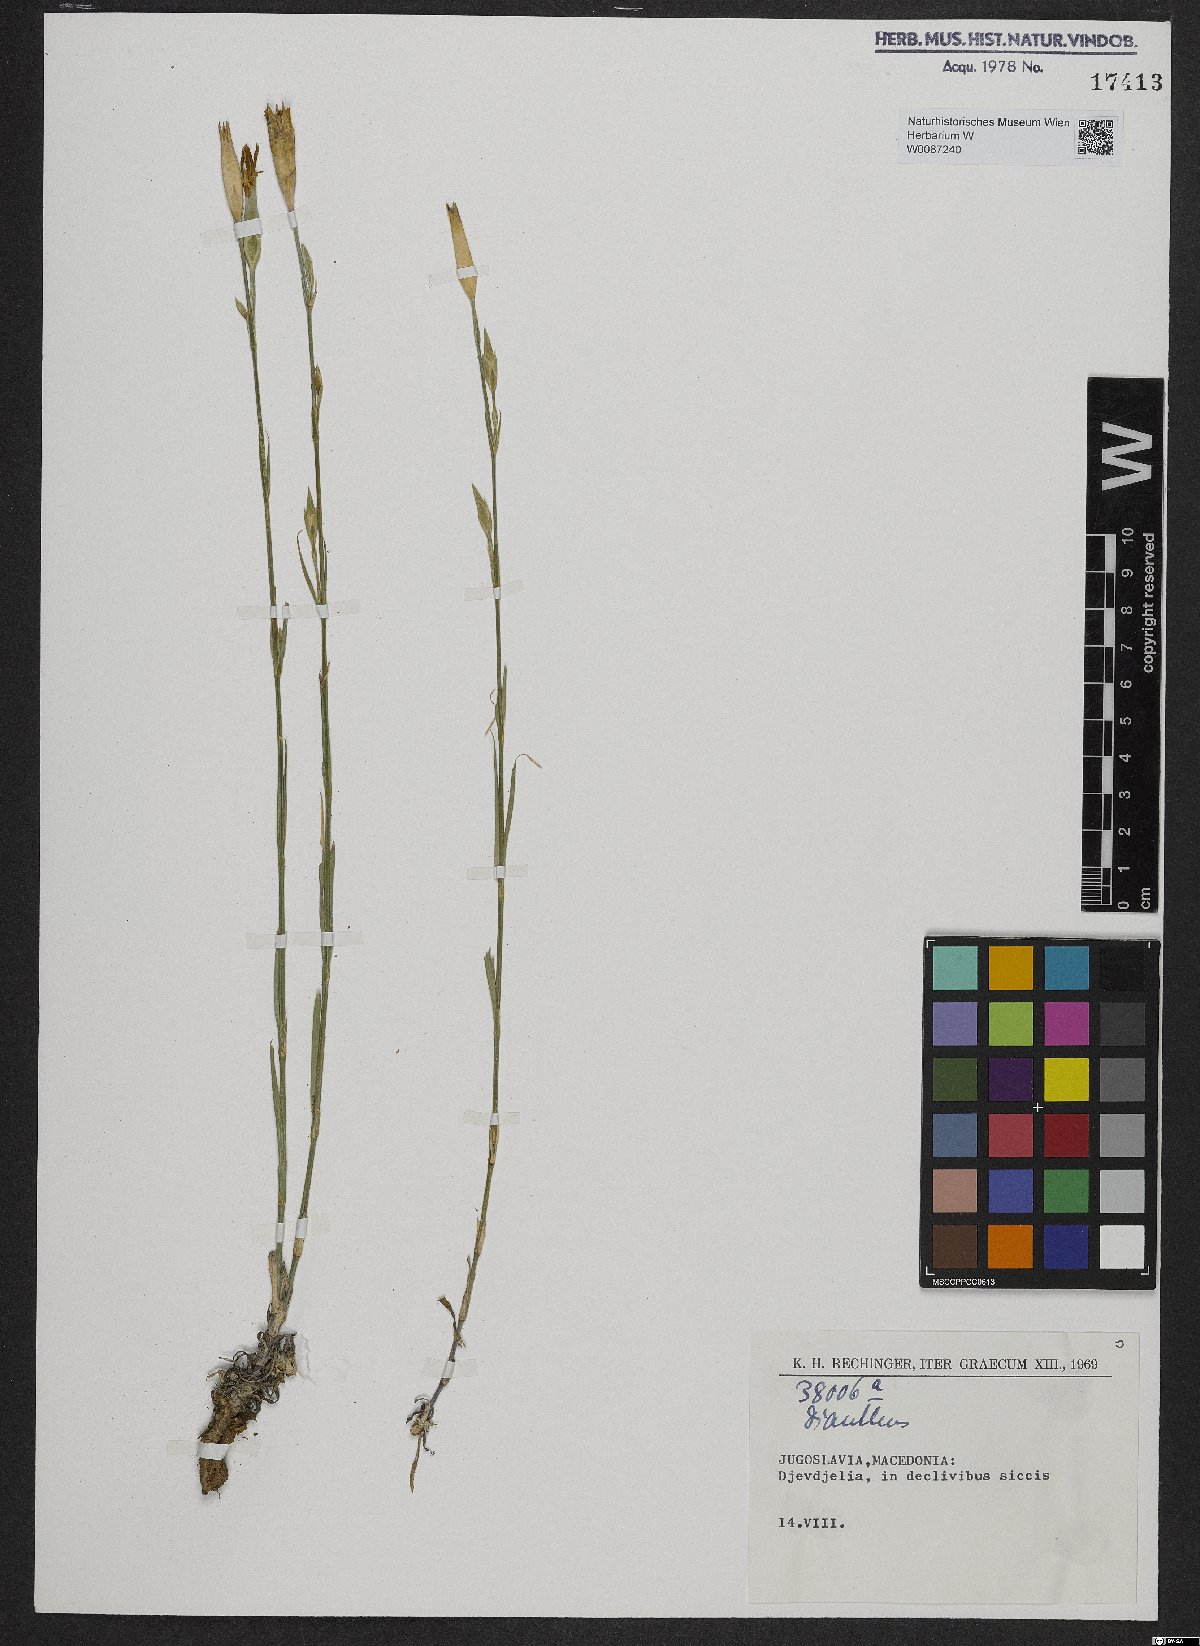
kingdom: Plantae
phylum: Tracheophyta
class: Magnoliopsida
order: Caryophyllales
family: Caryophyllaceae
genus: Dianthus
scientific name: Dianthus
